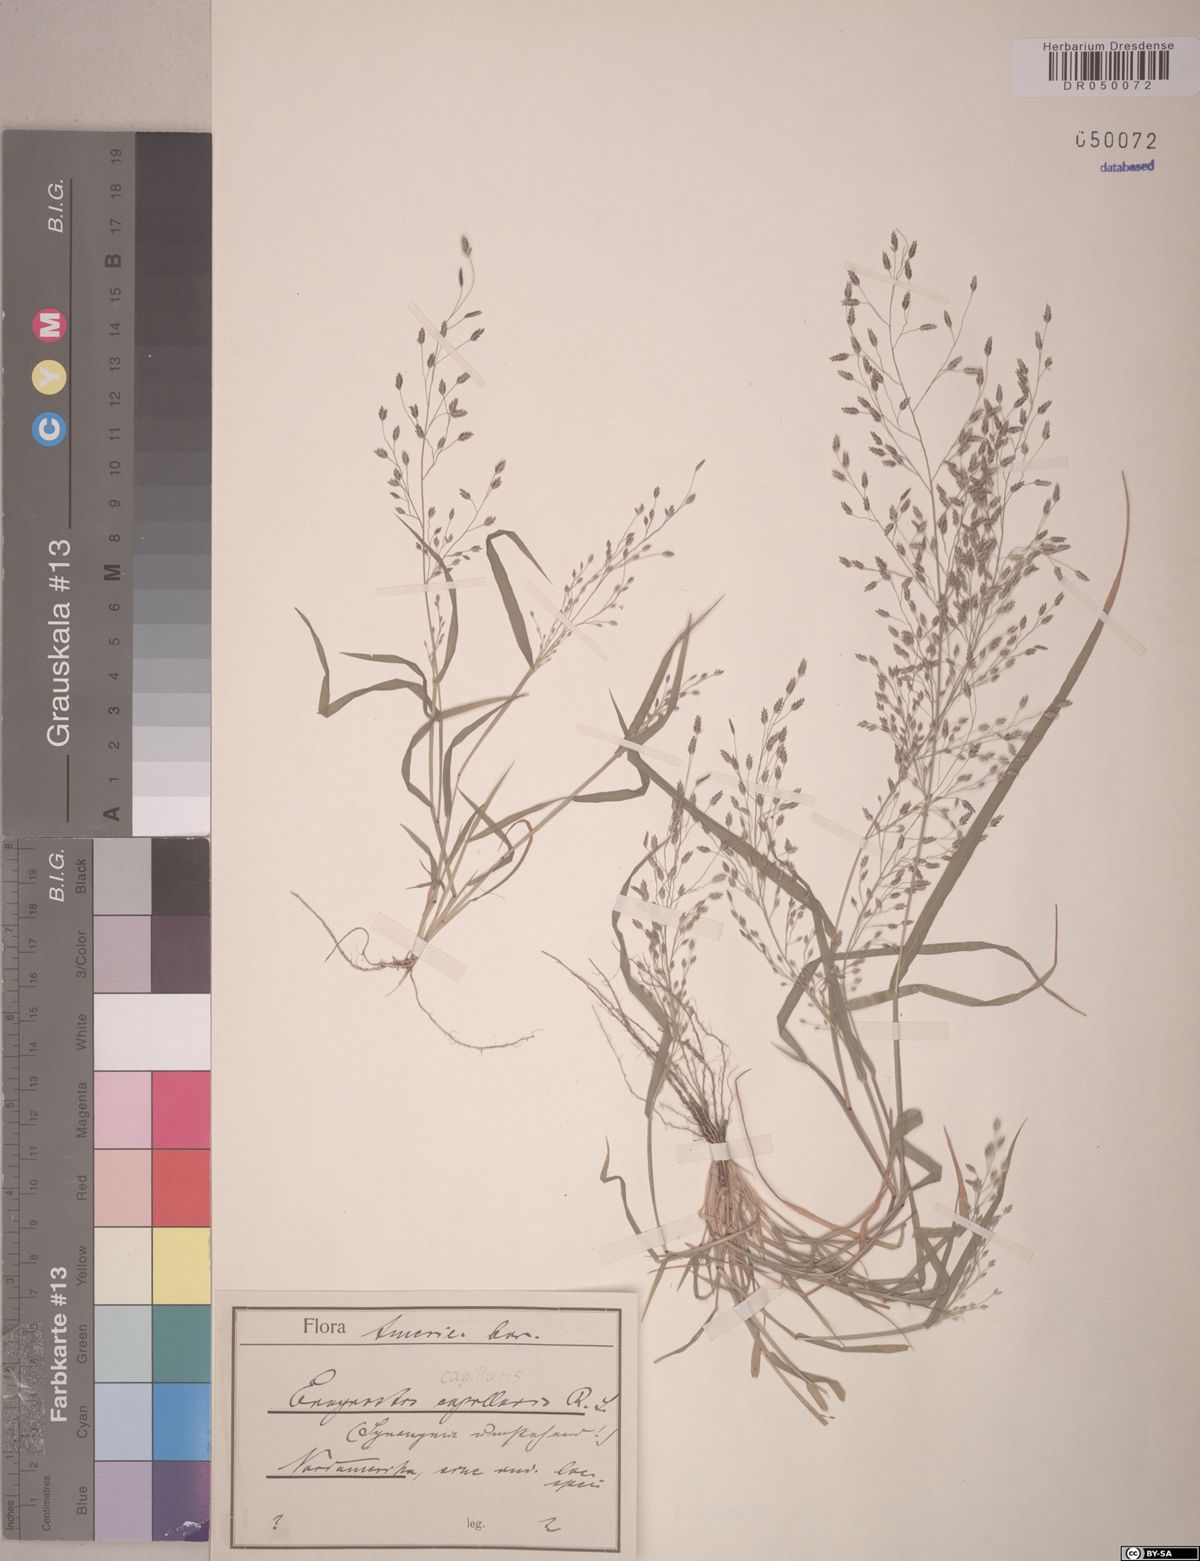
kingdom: Plantae
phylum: Tracheophyta
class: Liliopsida
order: Poales
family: Poaceae
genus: Eragrostis
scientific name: Eragrostis capillaris
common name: Hair-like lovegrass
